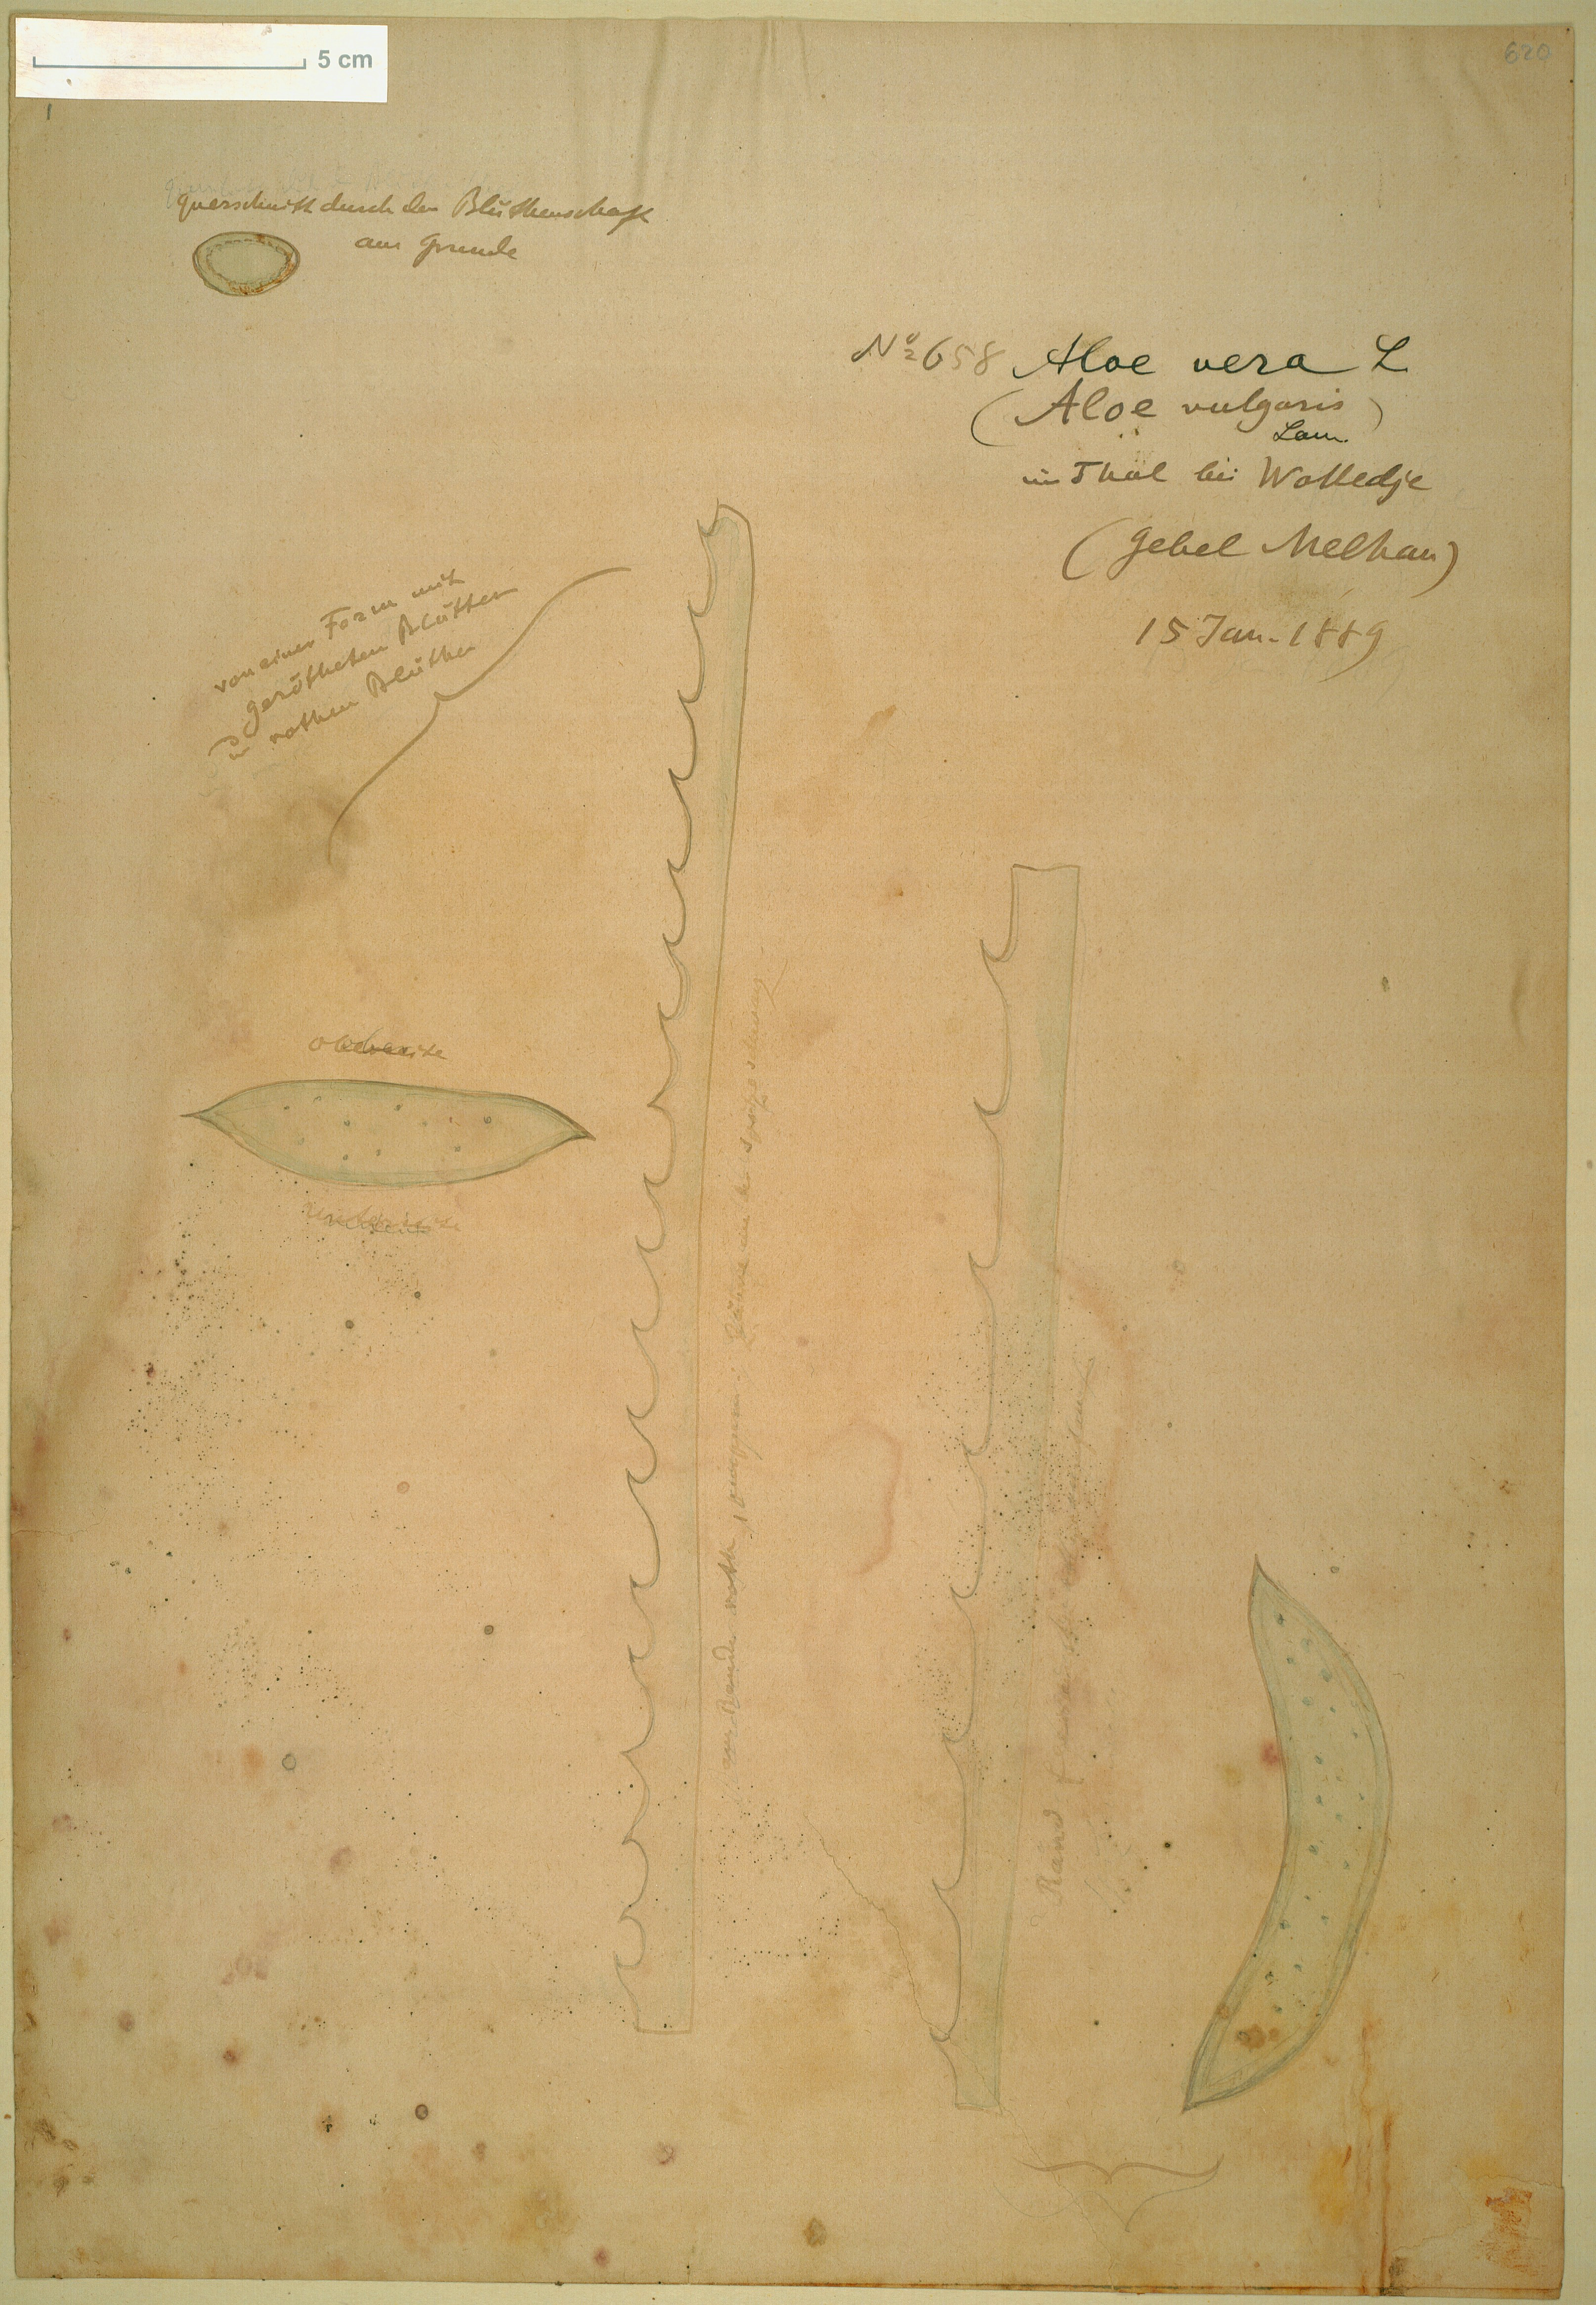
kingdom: Plantae
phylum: Tracheophyta
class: Liliopsida
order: Asparagales
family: Asphodelaceae
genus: Aloe
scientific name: Aloe vera
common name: Barbados aloe
